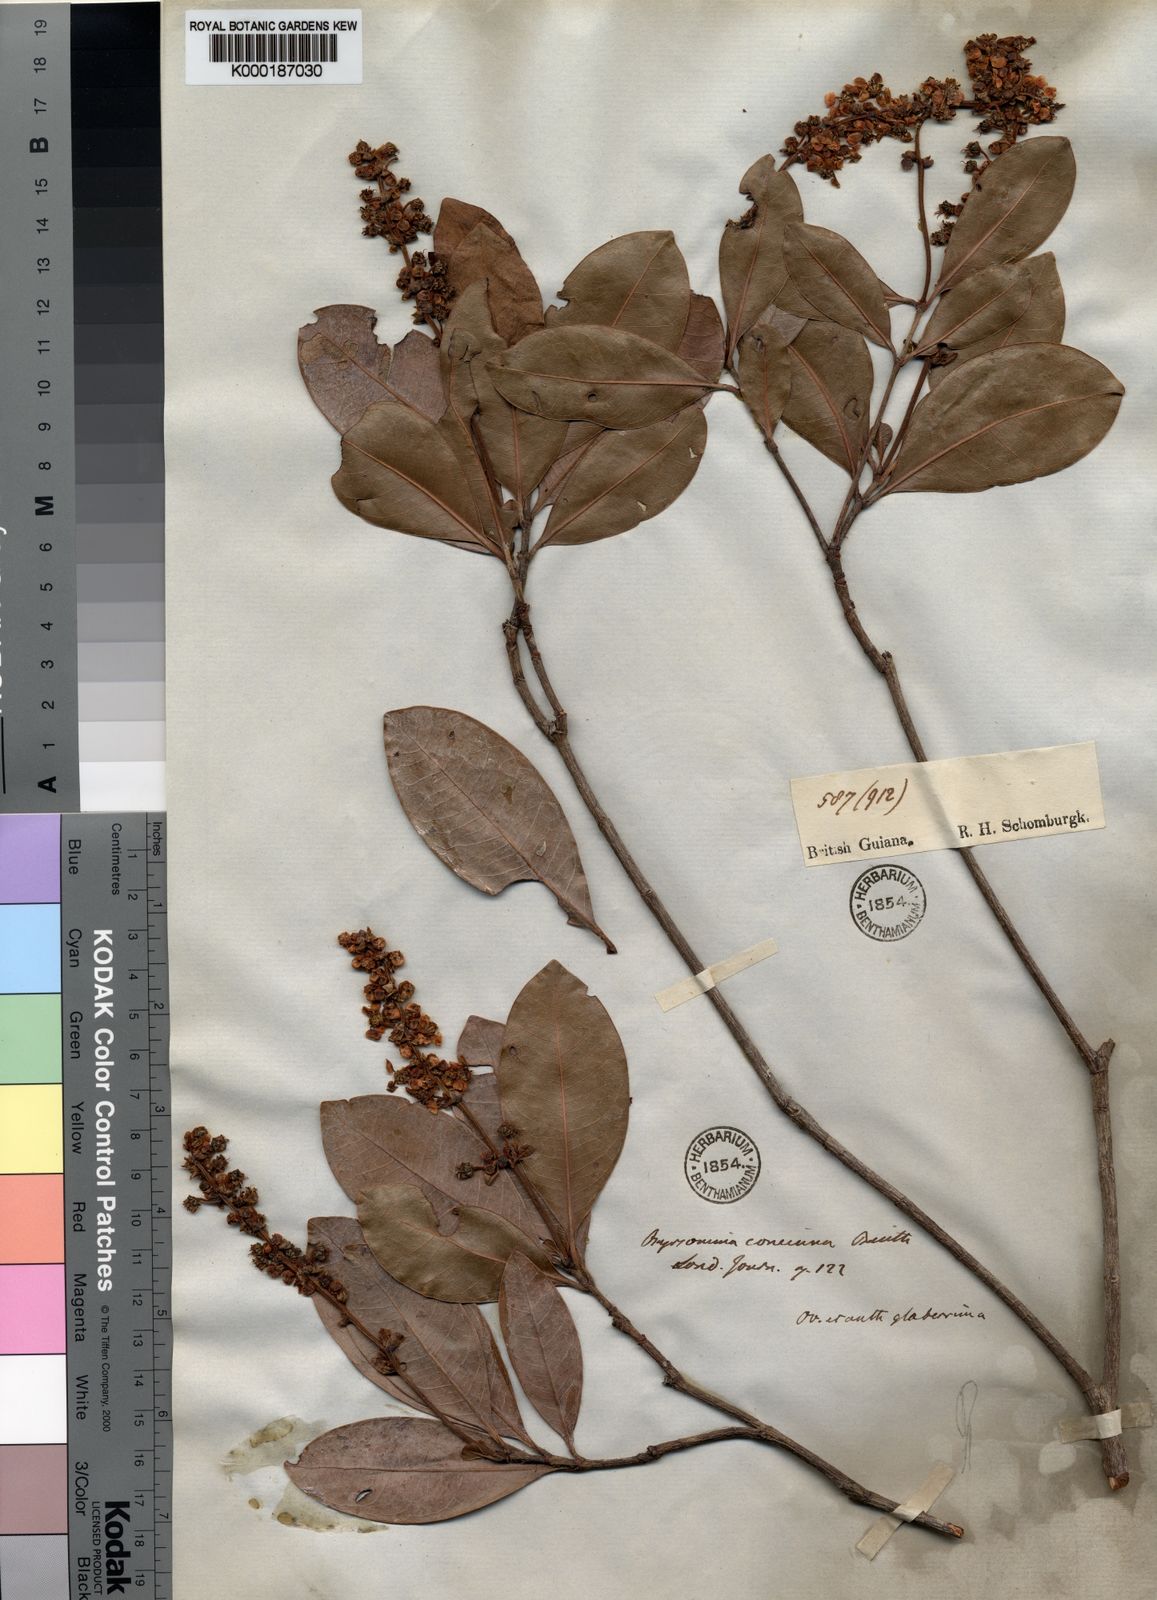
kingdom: Plantae
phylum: Tracheophyta
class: Magnoliopsida
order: Malpighiales
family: Malpighiaceae
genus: Byrsonima
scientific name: Byrsonima concinna
